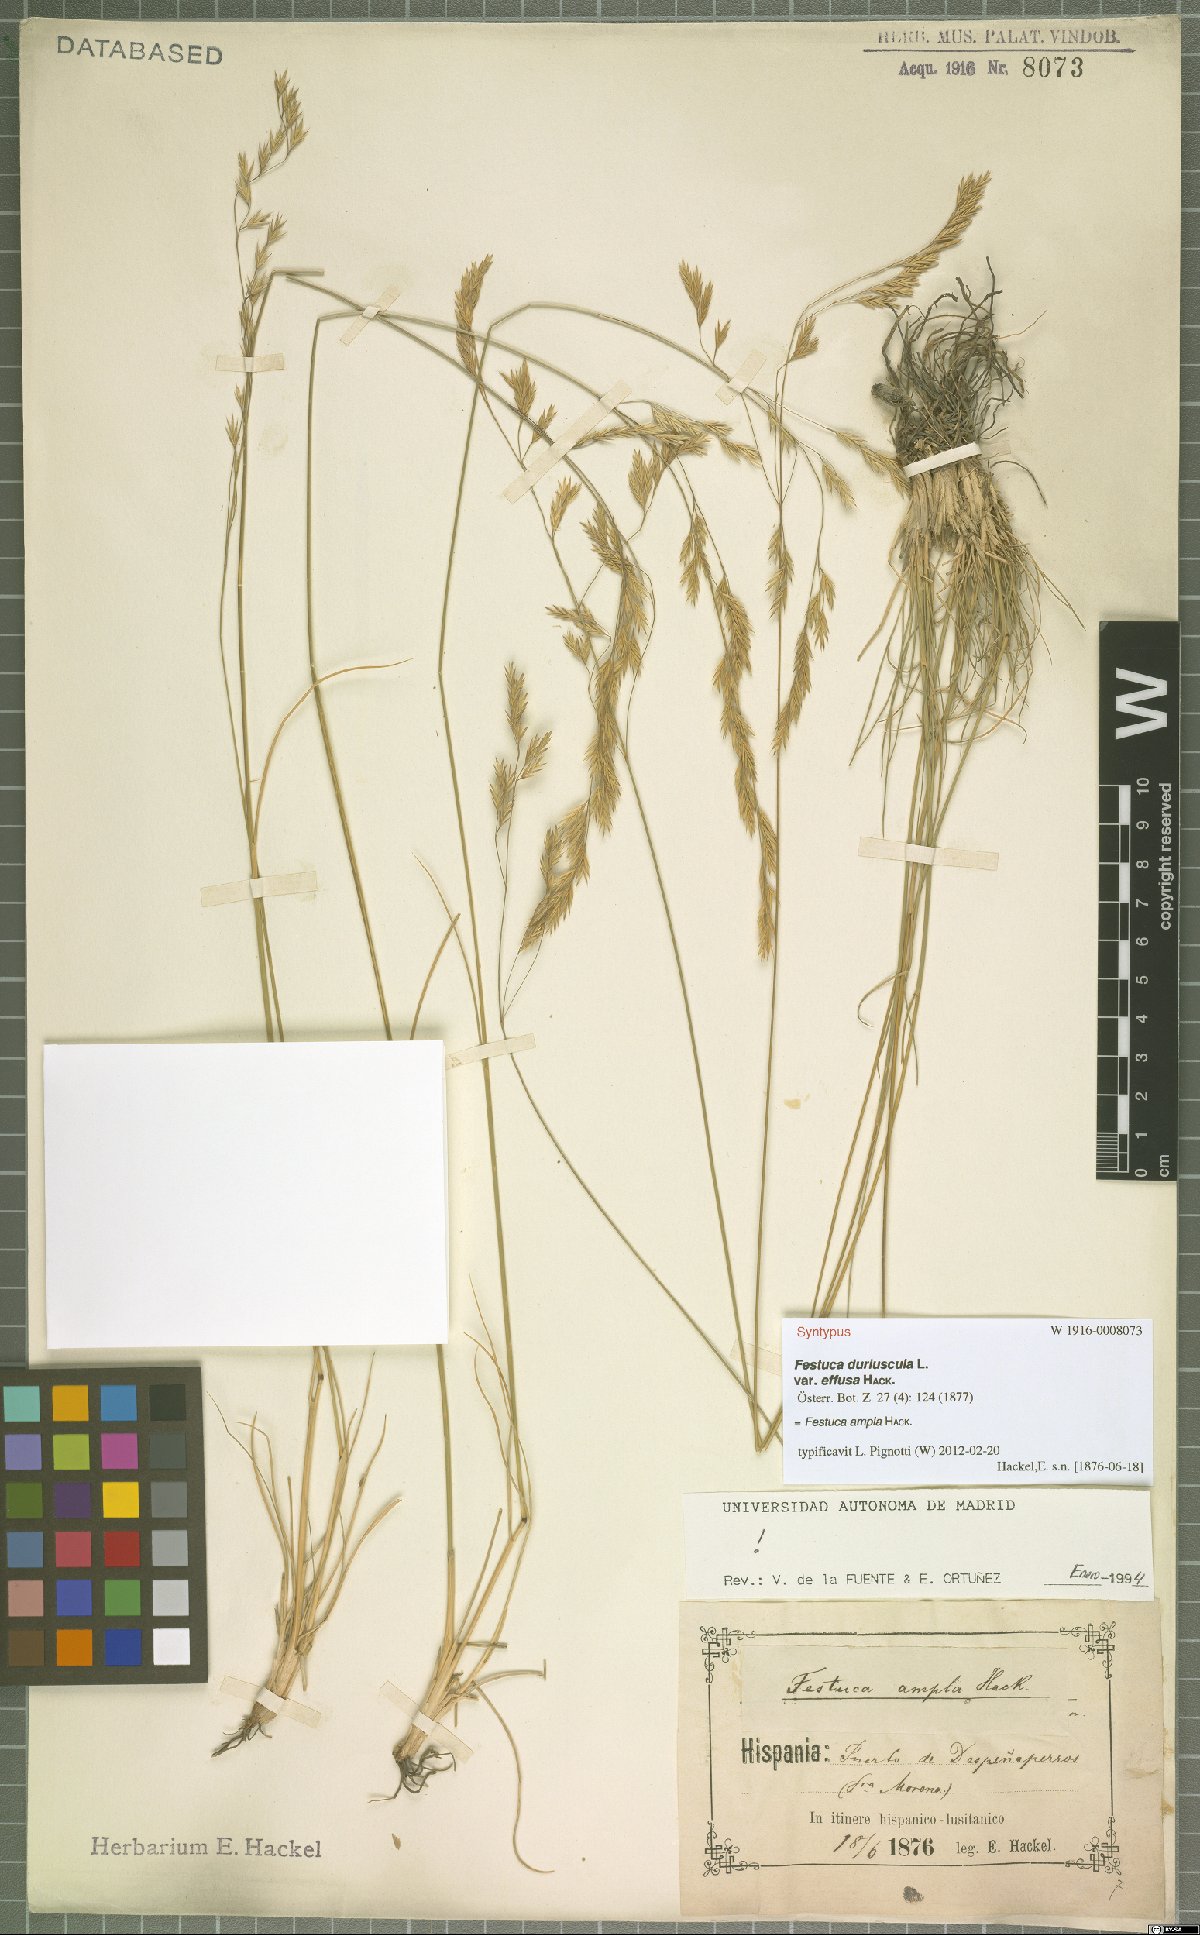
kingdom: Plantae
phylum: Tracheophyta
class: Liliopsida
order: Poales
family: Poaceae
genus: Festuca
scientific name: Festuca ampla
